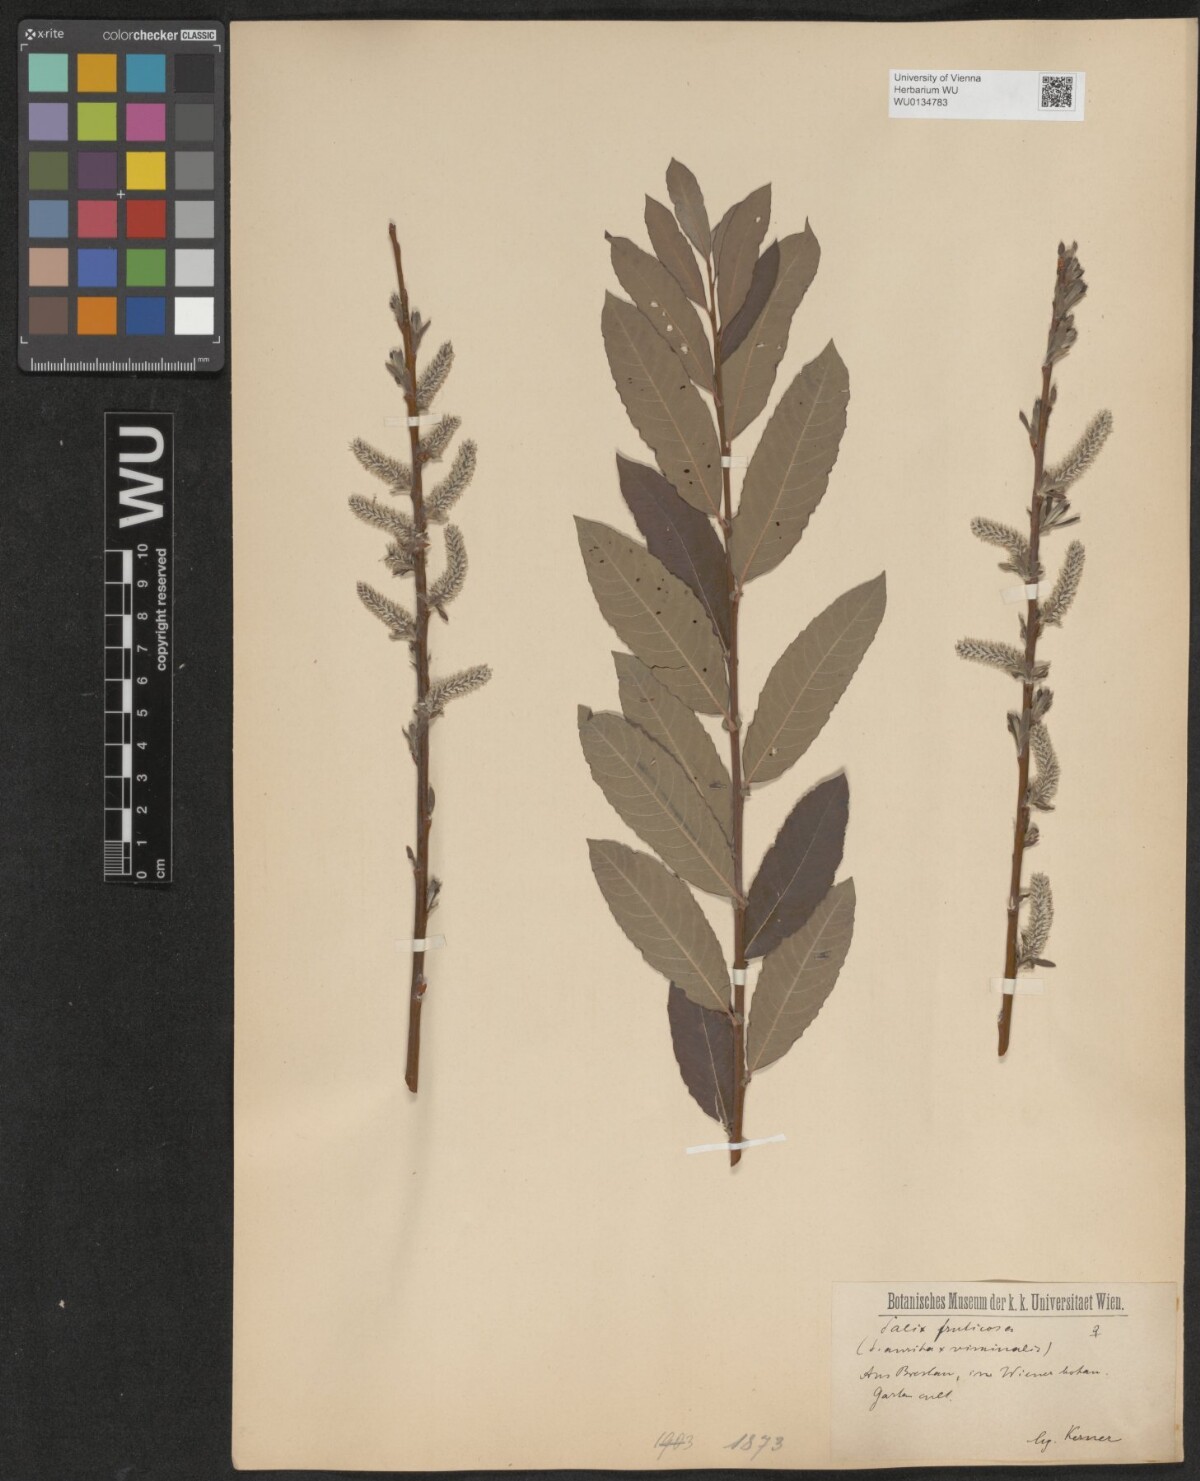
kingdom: Plantae
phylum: Tracheophyta
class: Magnoliopsida
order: Malpighiales
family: Salicaceae
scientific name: Salicaceae
